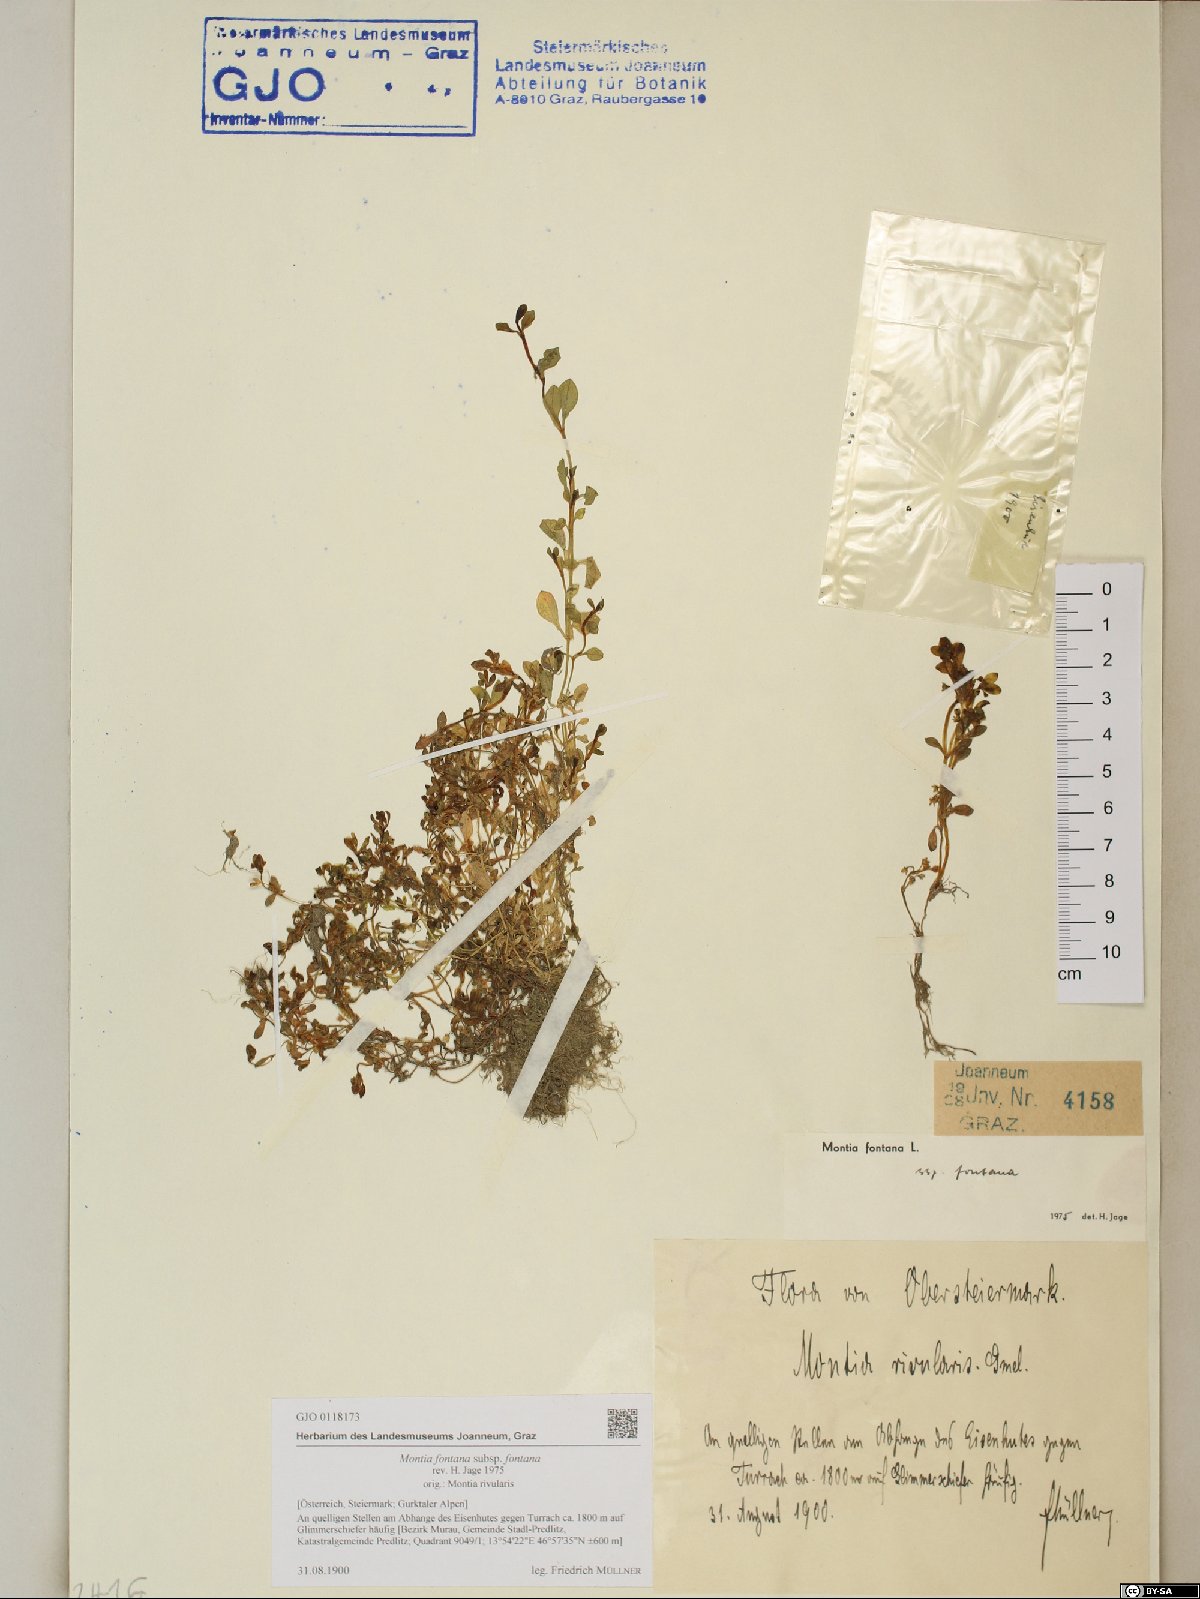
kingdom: Plantae
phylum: Tracheophyta
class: Magnoliopsida
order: Caryophyllales
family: Montiaceae
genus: Montia
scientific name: Montia fontana
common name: Blinks
